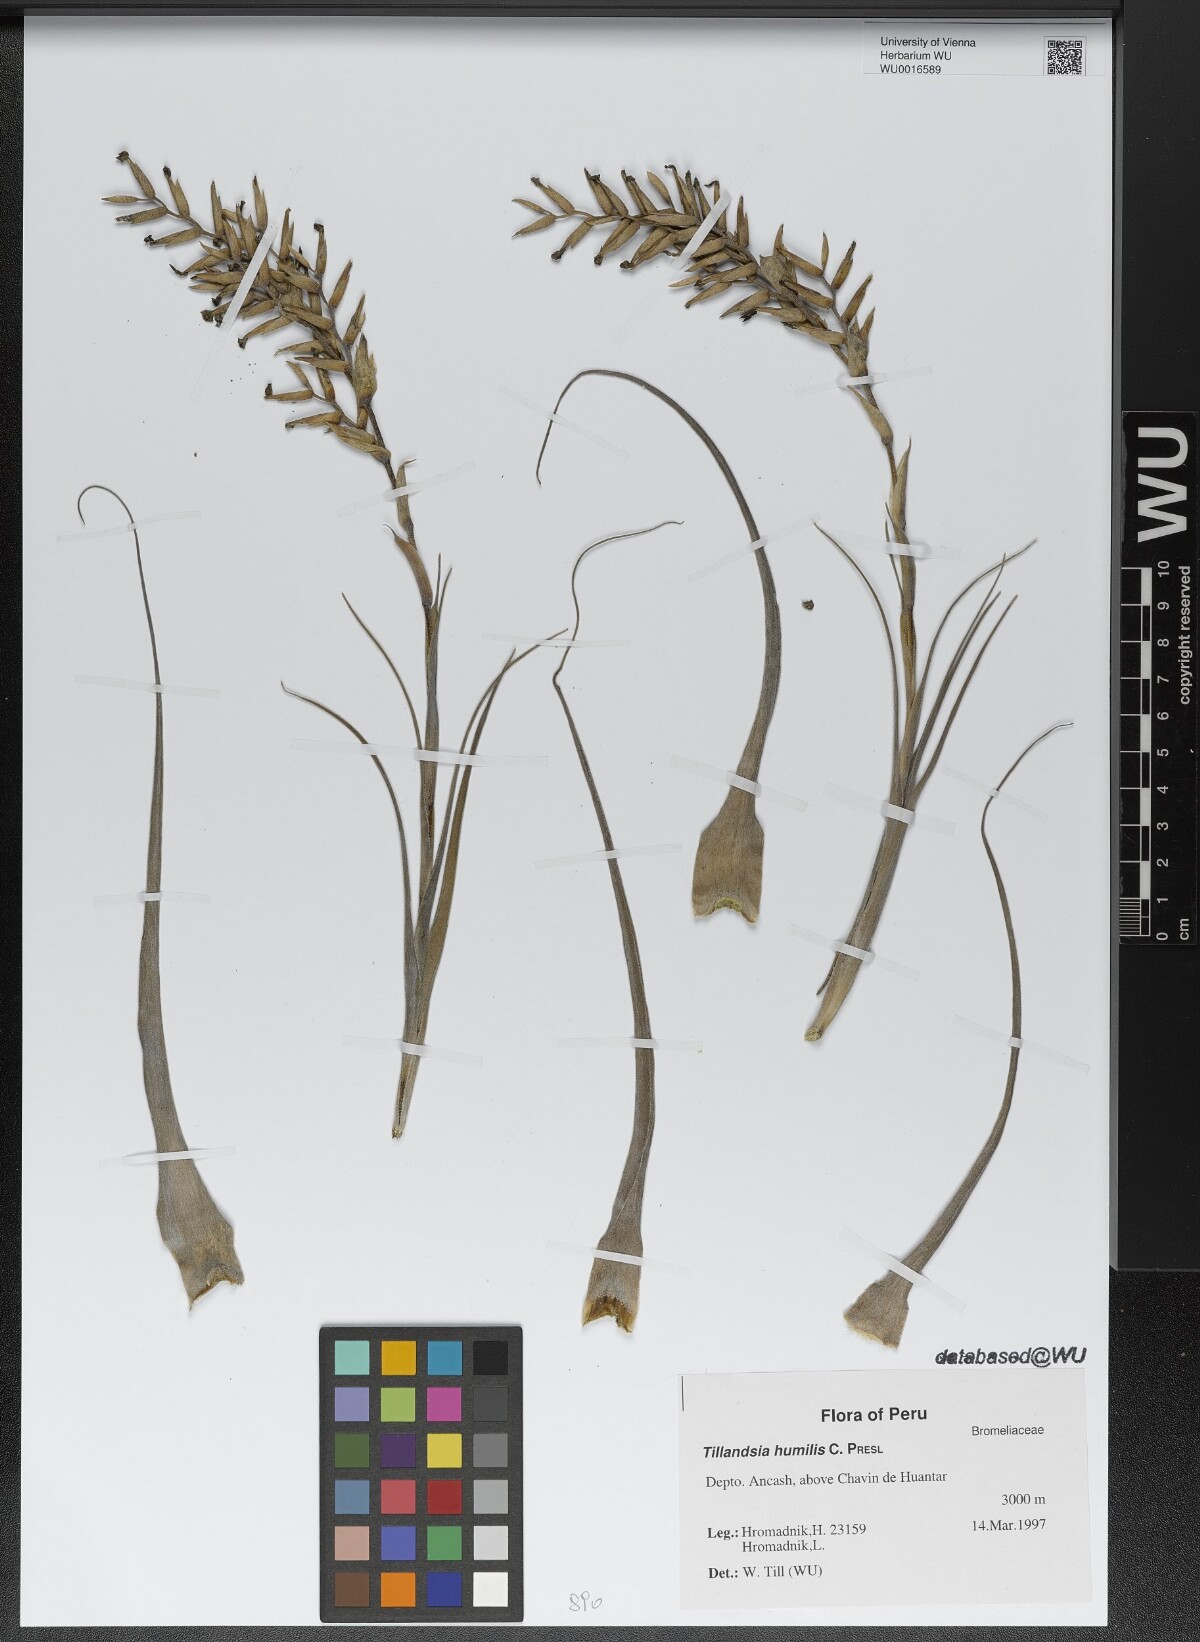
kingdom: Plantae
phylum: Tracheophyta
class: Liliopsida
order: Poales
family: Bromeliaceae
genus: Tillandsia
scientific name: Tillandsia humilis
